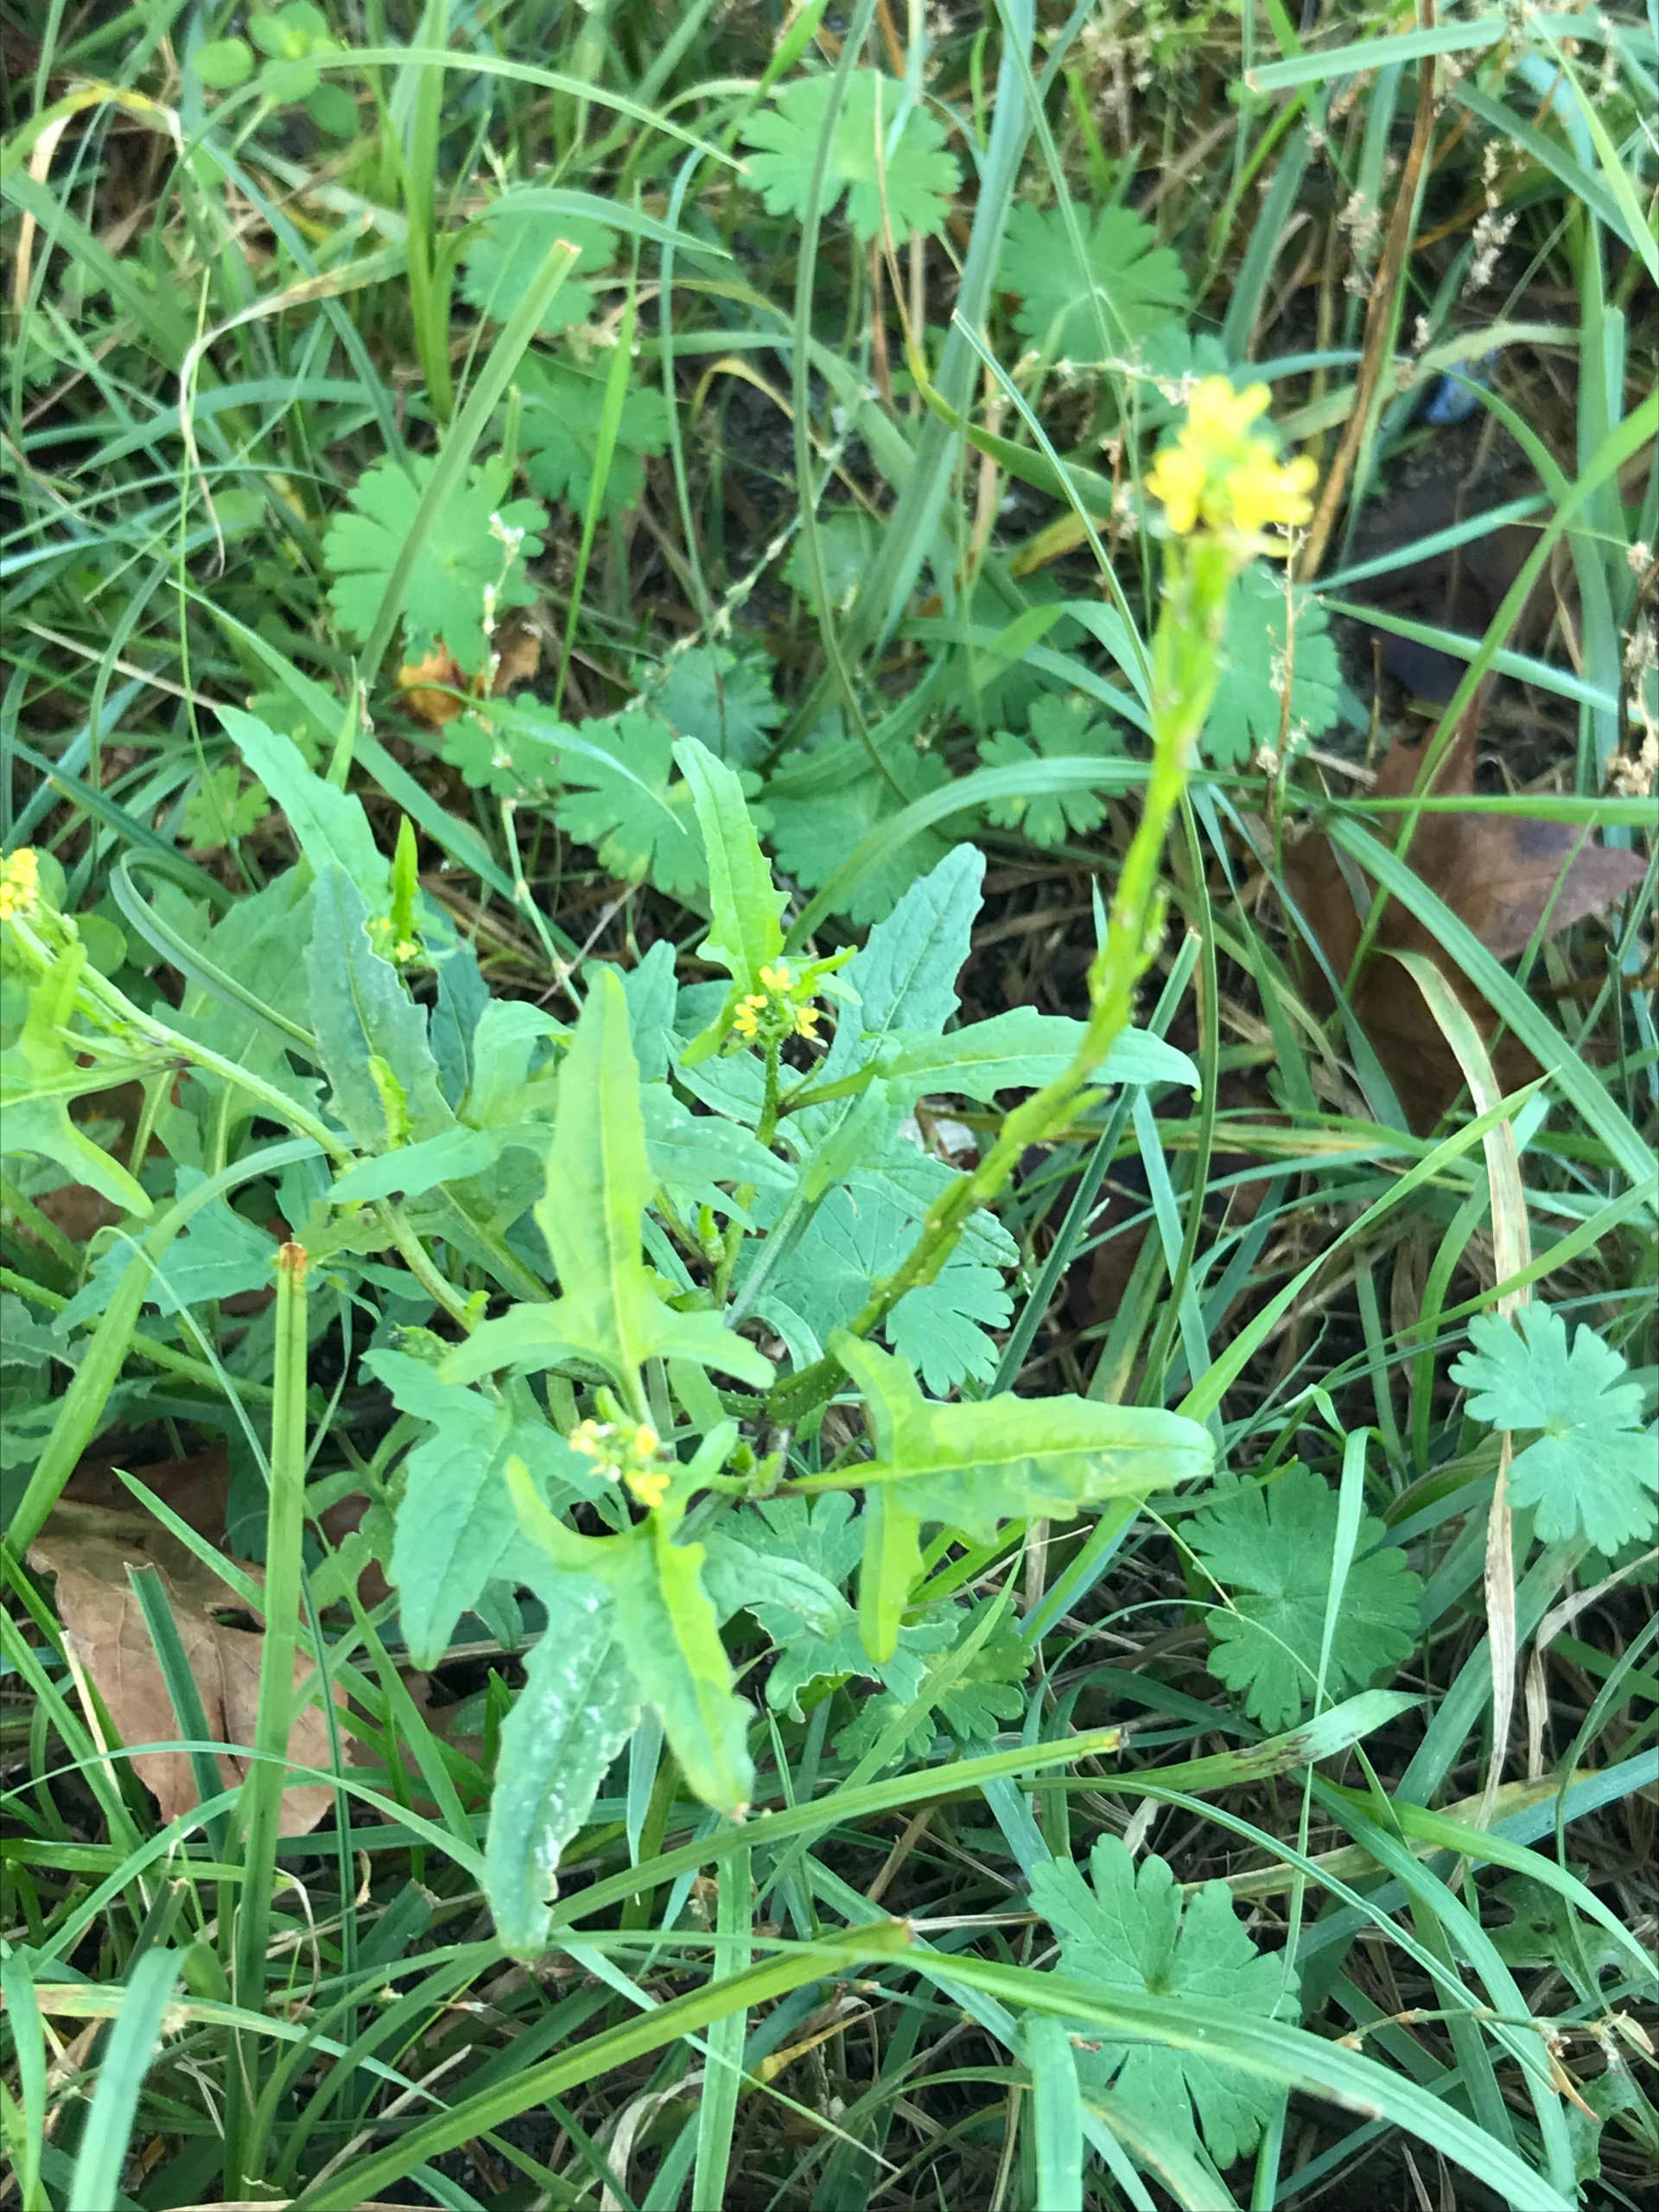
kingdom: Plantae
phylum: Tracheophyta
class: Magnoliopsida
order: Brassicales
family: Brassicaceae
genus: Sisymbrium
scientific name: Sisymbrium officinale
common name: Rank vejsennep
